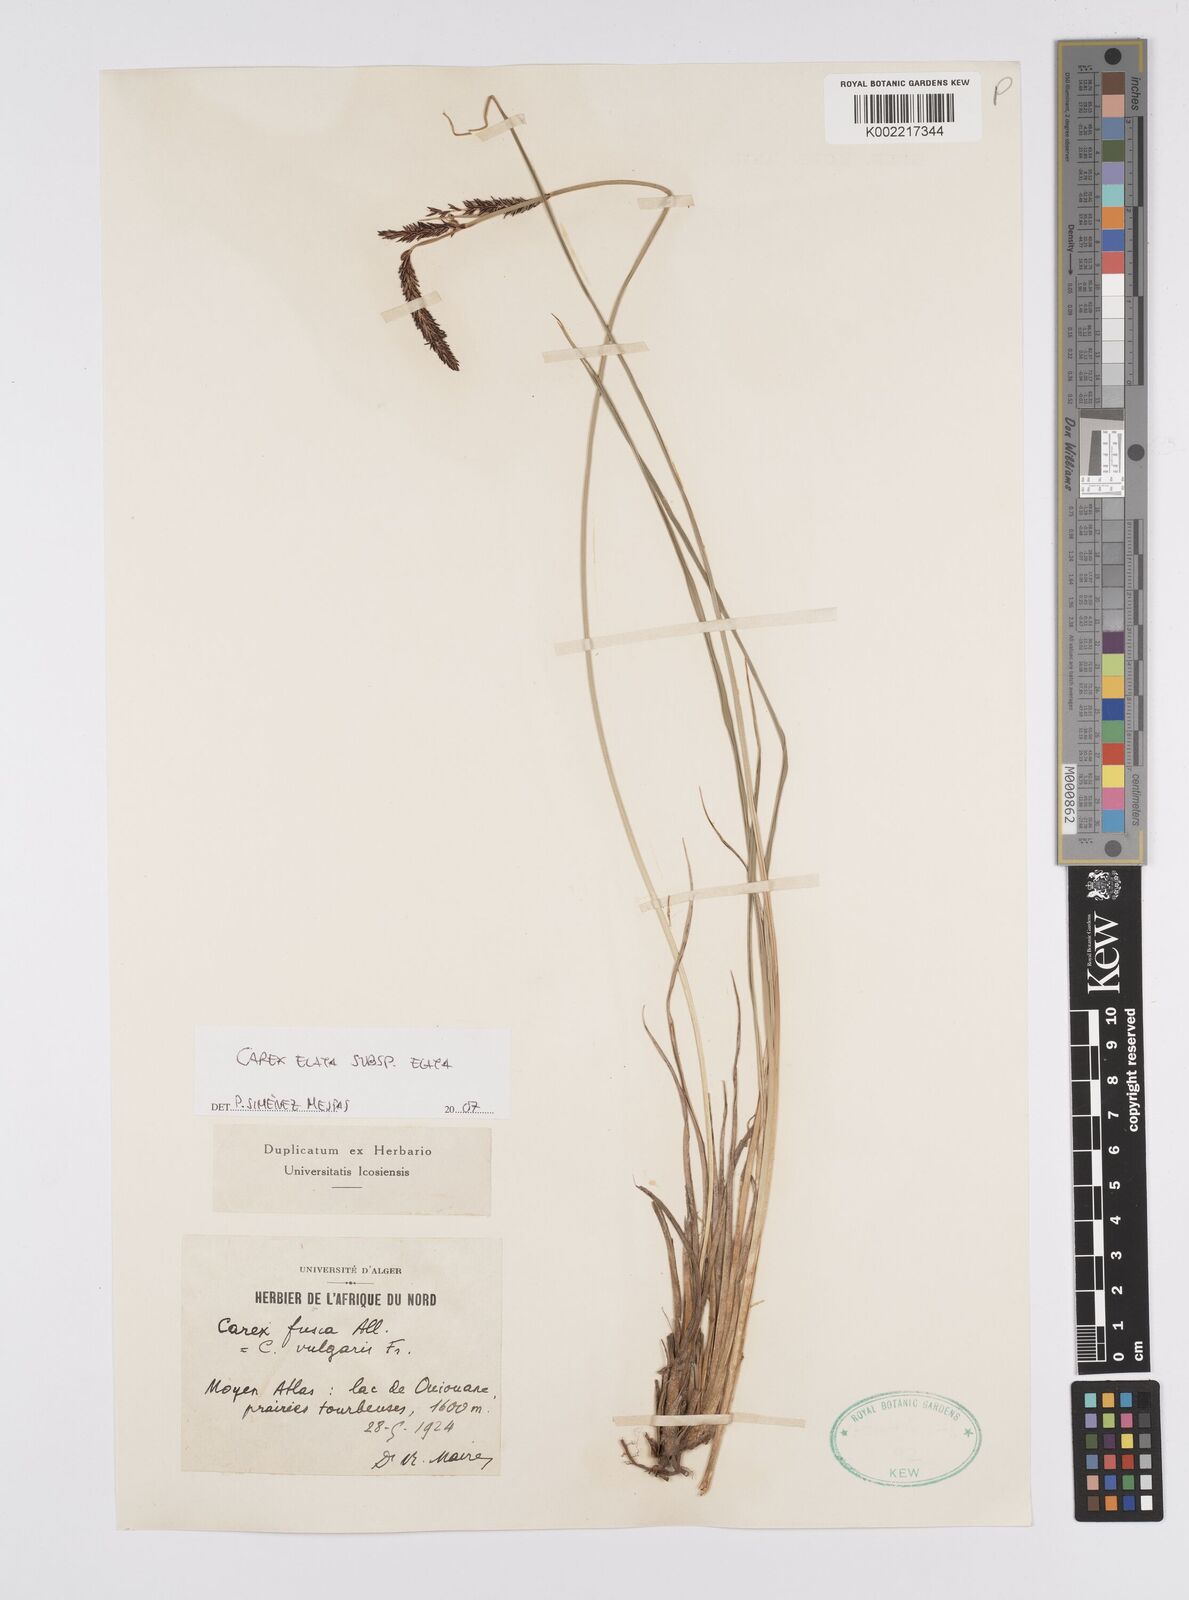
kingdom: Plantae
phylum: Tracheophyta
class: Liliopsida
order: Poales
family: Cyperaceae
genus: Carex
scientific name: Carex elata
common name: Tufted sedge
